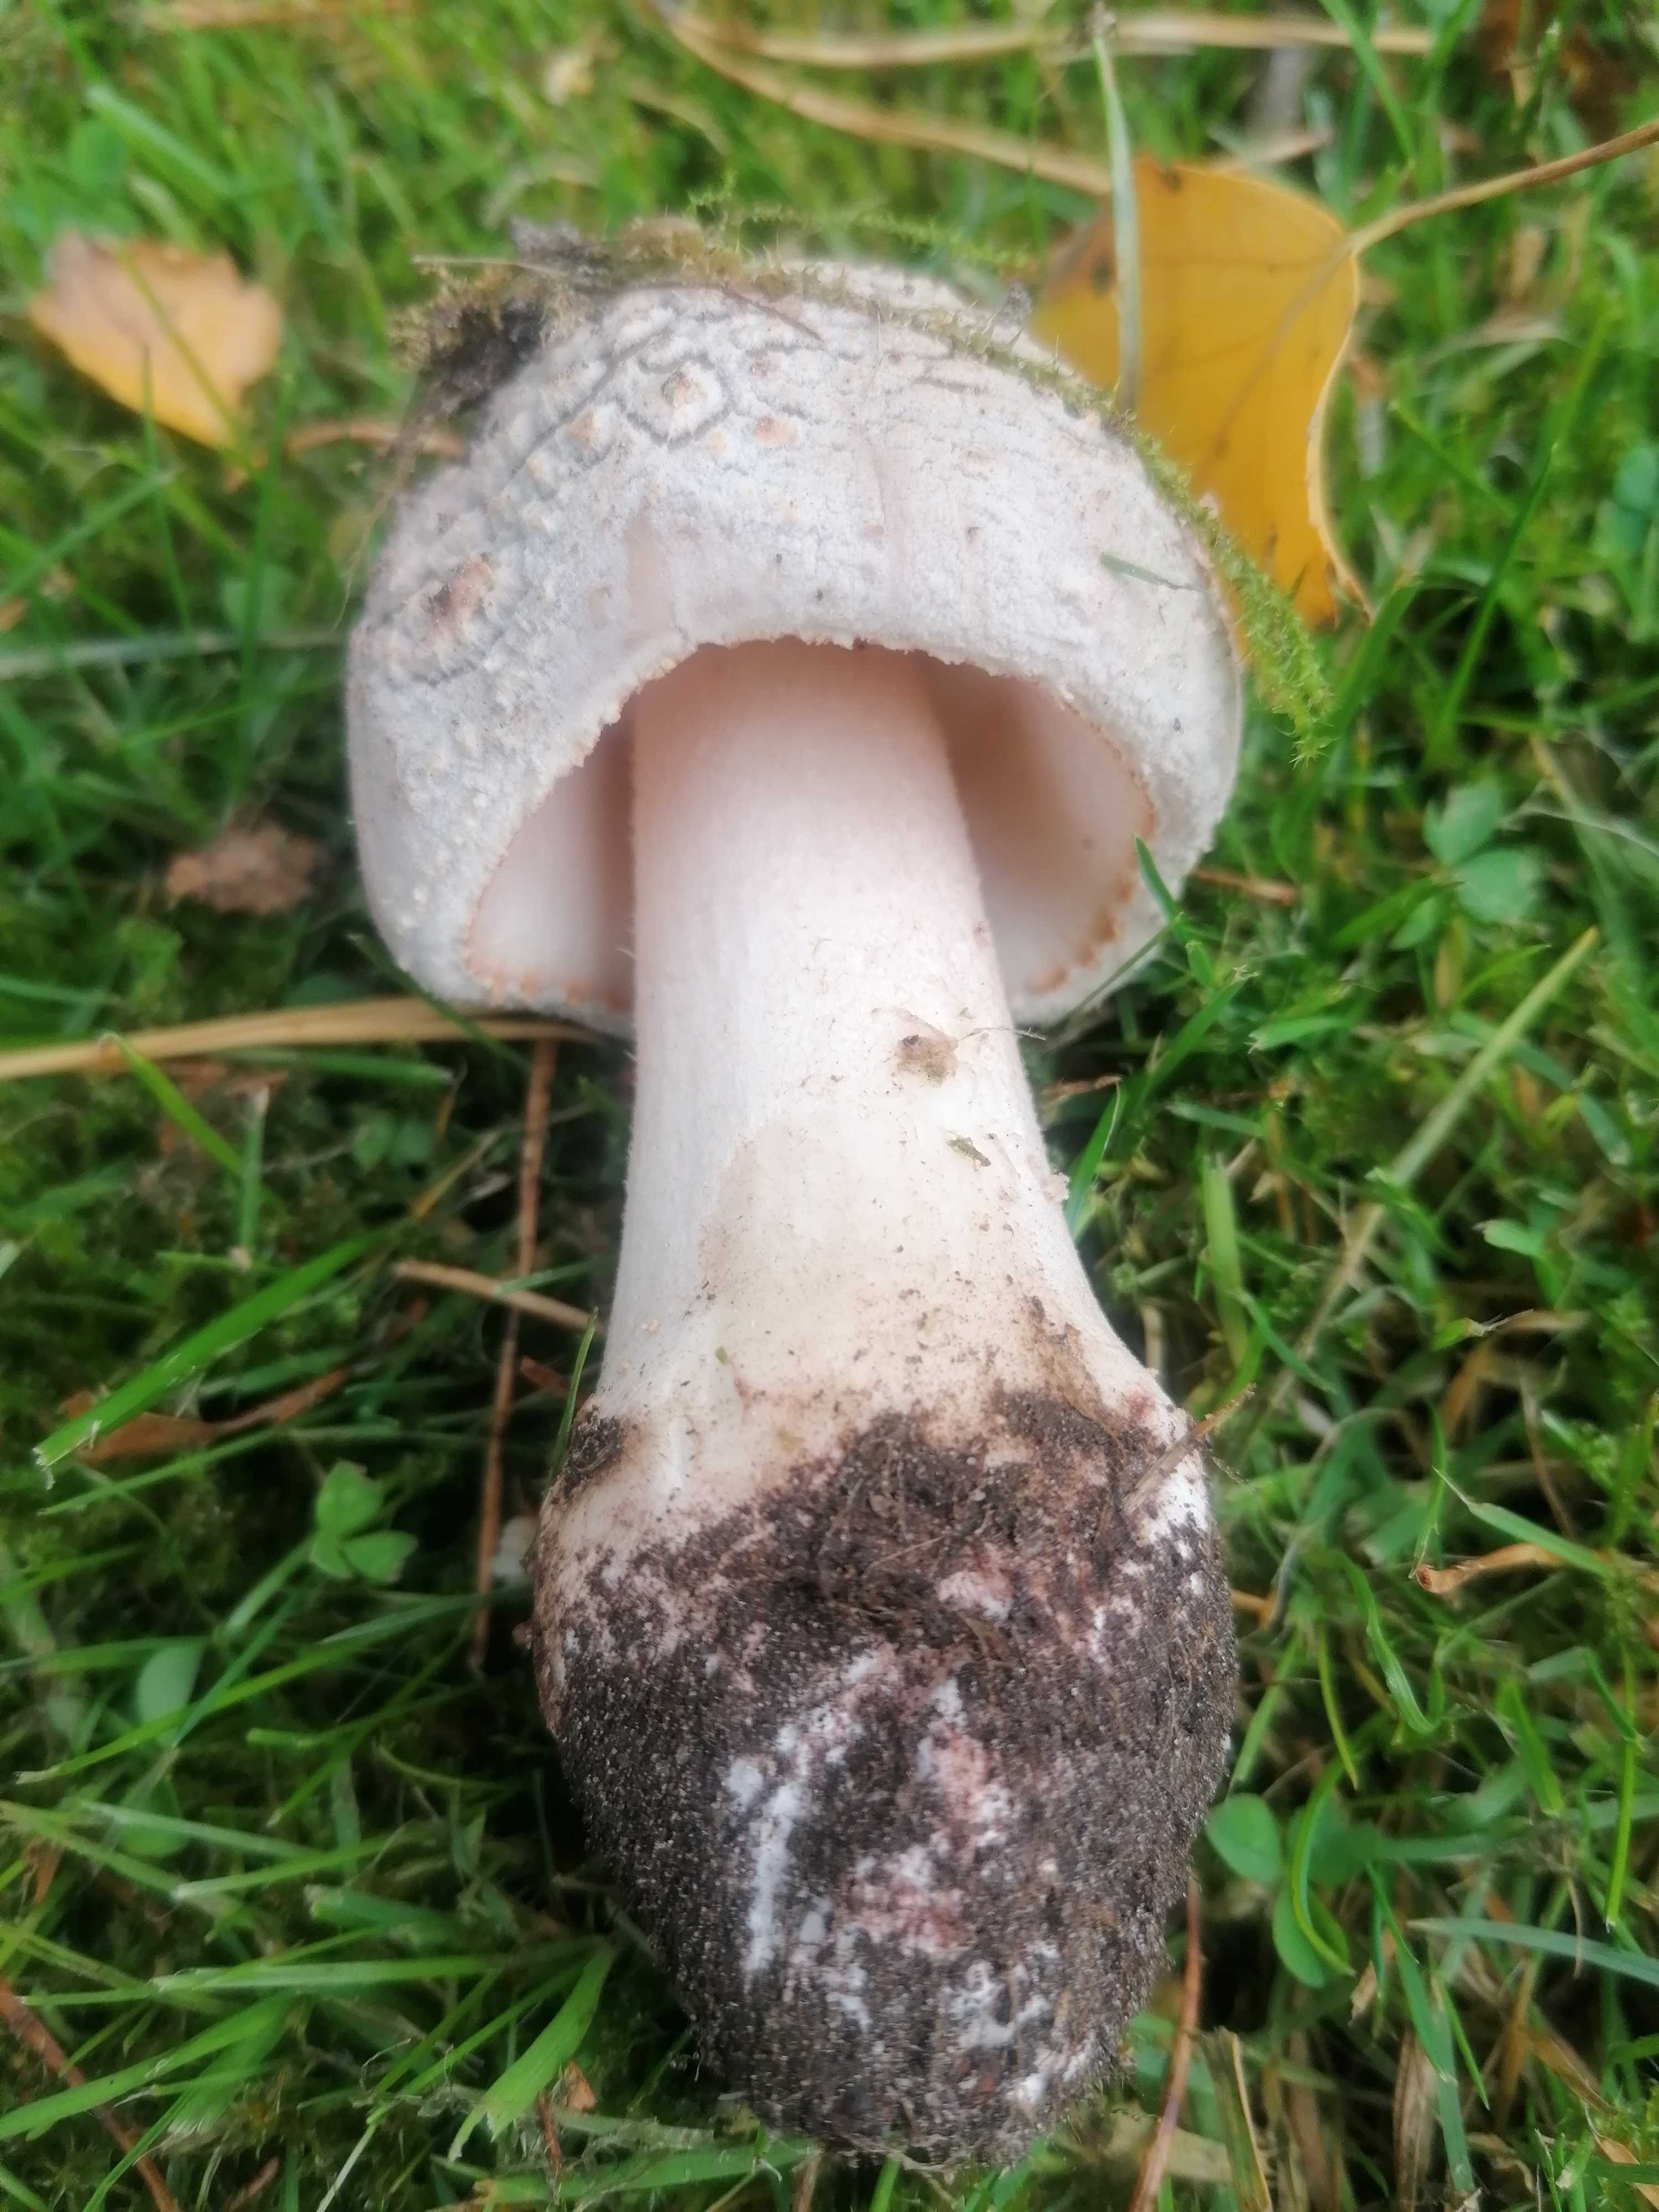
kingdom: Fungi
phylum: Basidiomycota
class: Agaricomycetes
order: Agaricales
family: Amanitaceae
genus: Amanita
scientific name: Amanita rubescens
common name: rødmende fluesvamp
